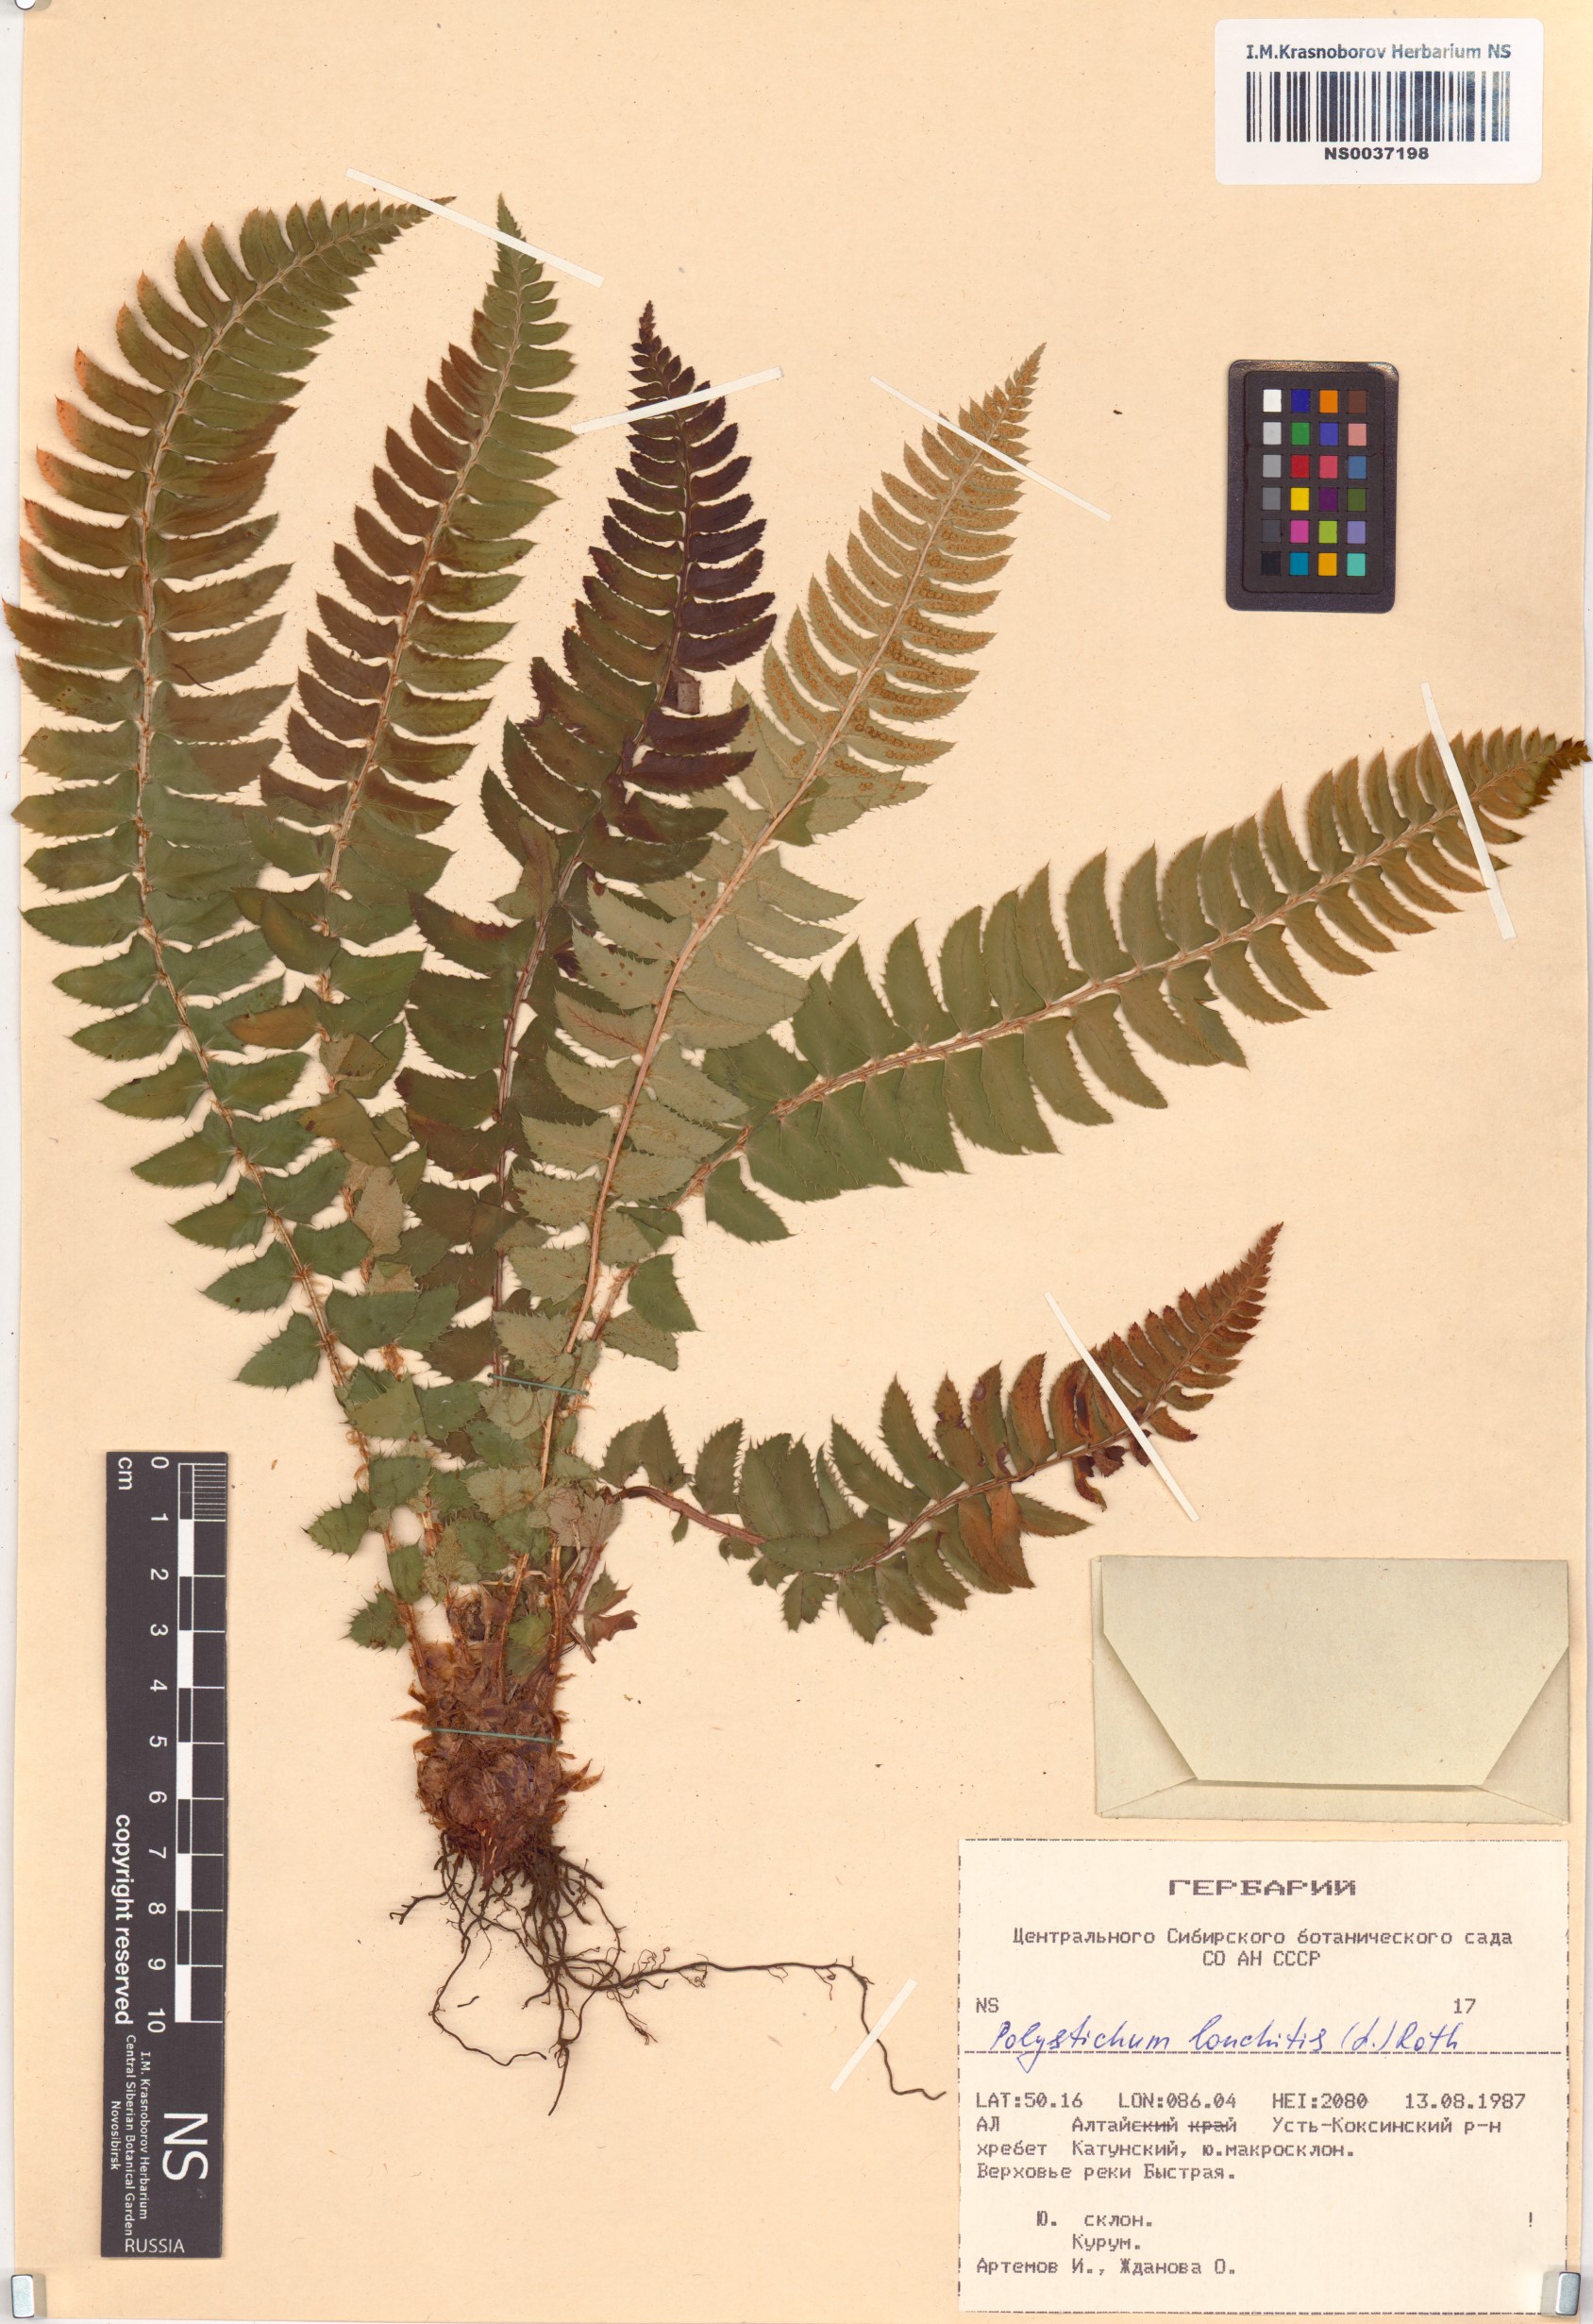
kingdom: Plantae
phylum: Tracheophyta
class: Polypodiopsida
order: Polypodiales
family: Dryopteridaceae
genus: Polystichum
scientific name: Polystichum lonchitis
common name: Holly fern
